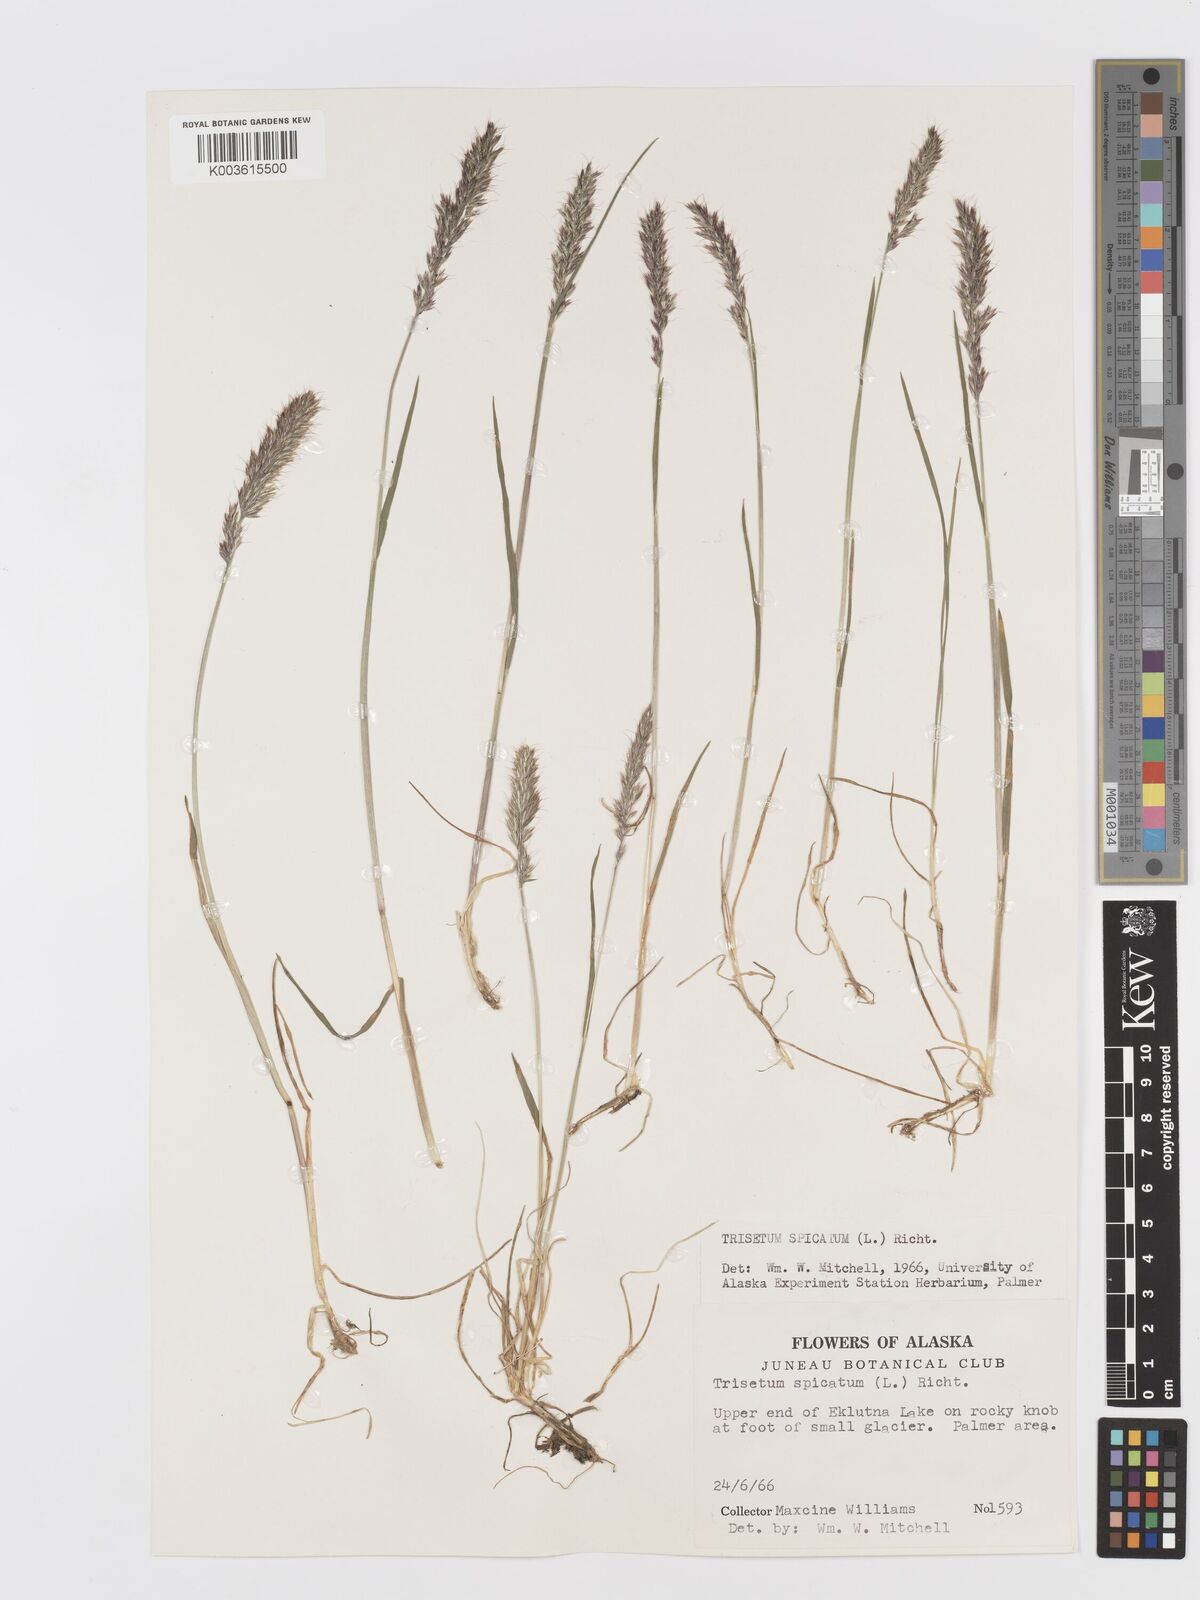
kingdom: Plantae
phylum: Tracheophyta
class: Liliopsida
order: Poales
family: Poaceae
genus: Koeleria
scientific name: Koeleria spicata
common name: Mountain trisetum
